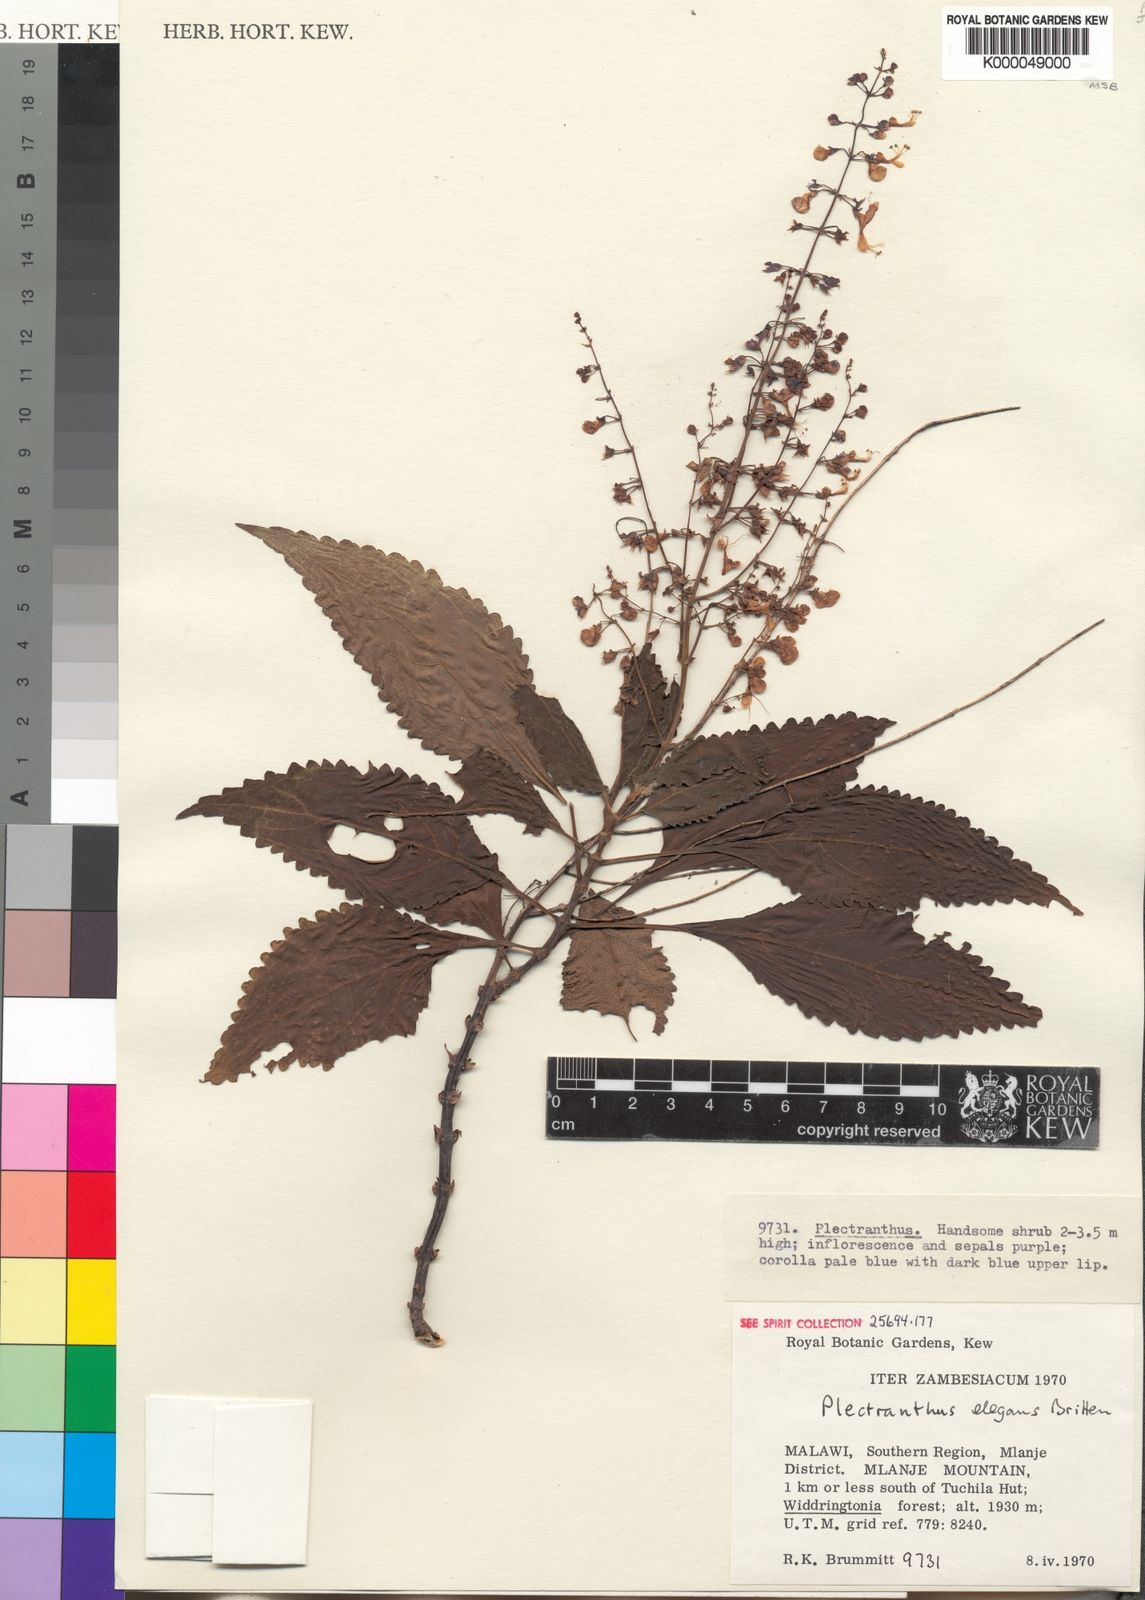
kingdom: Plantae
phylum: Tracheophyta
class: Magnoliopsida
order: Lamiales
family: Lamiaceae
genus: Plectranthus
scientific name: Plectranthus elegans
